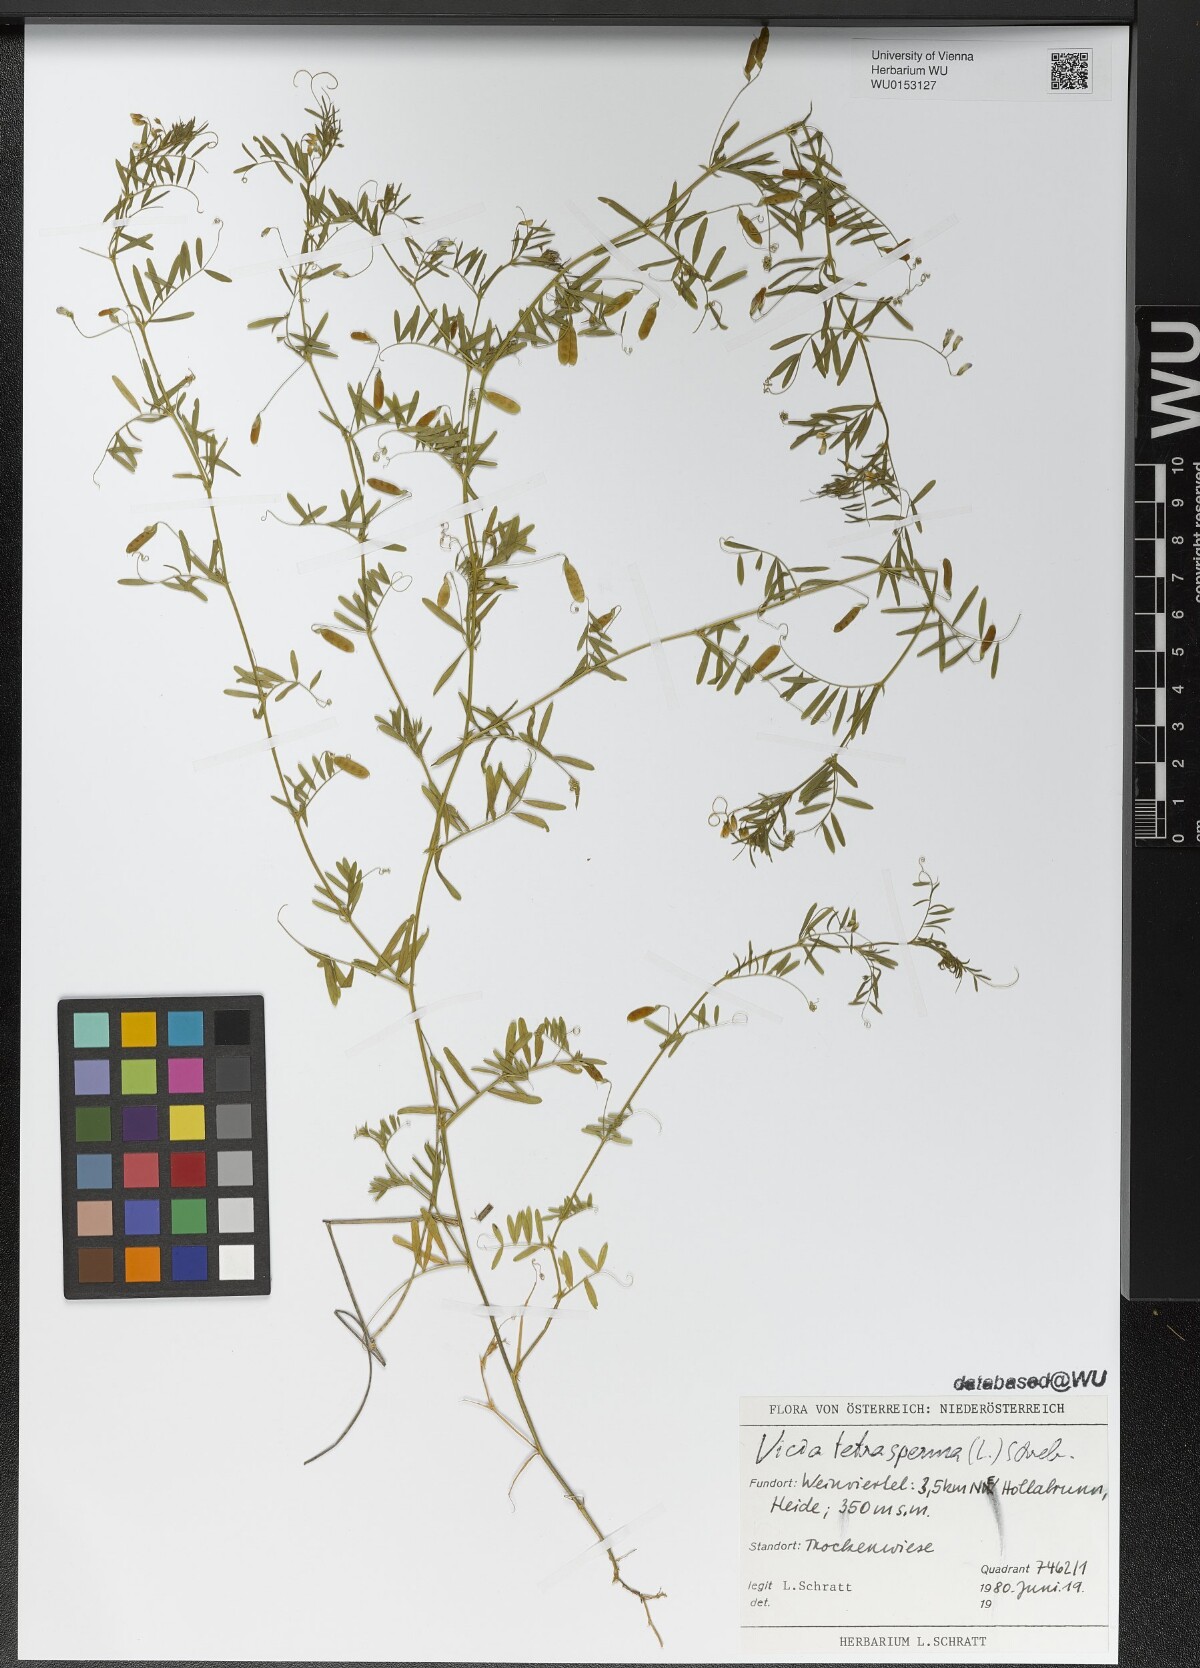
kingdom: Plantae
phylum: Tracheophyta
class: Magnoliopsida
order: Fabales
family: Fabaceae
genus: Vicia
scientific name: Vicia tetrasperma
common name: Smooth tare
